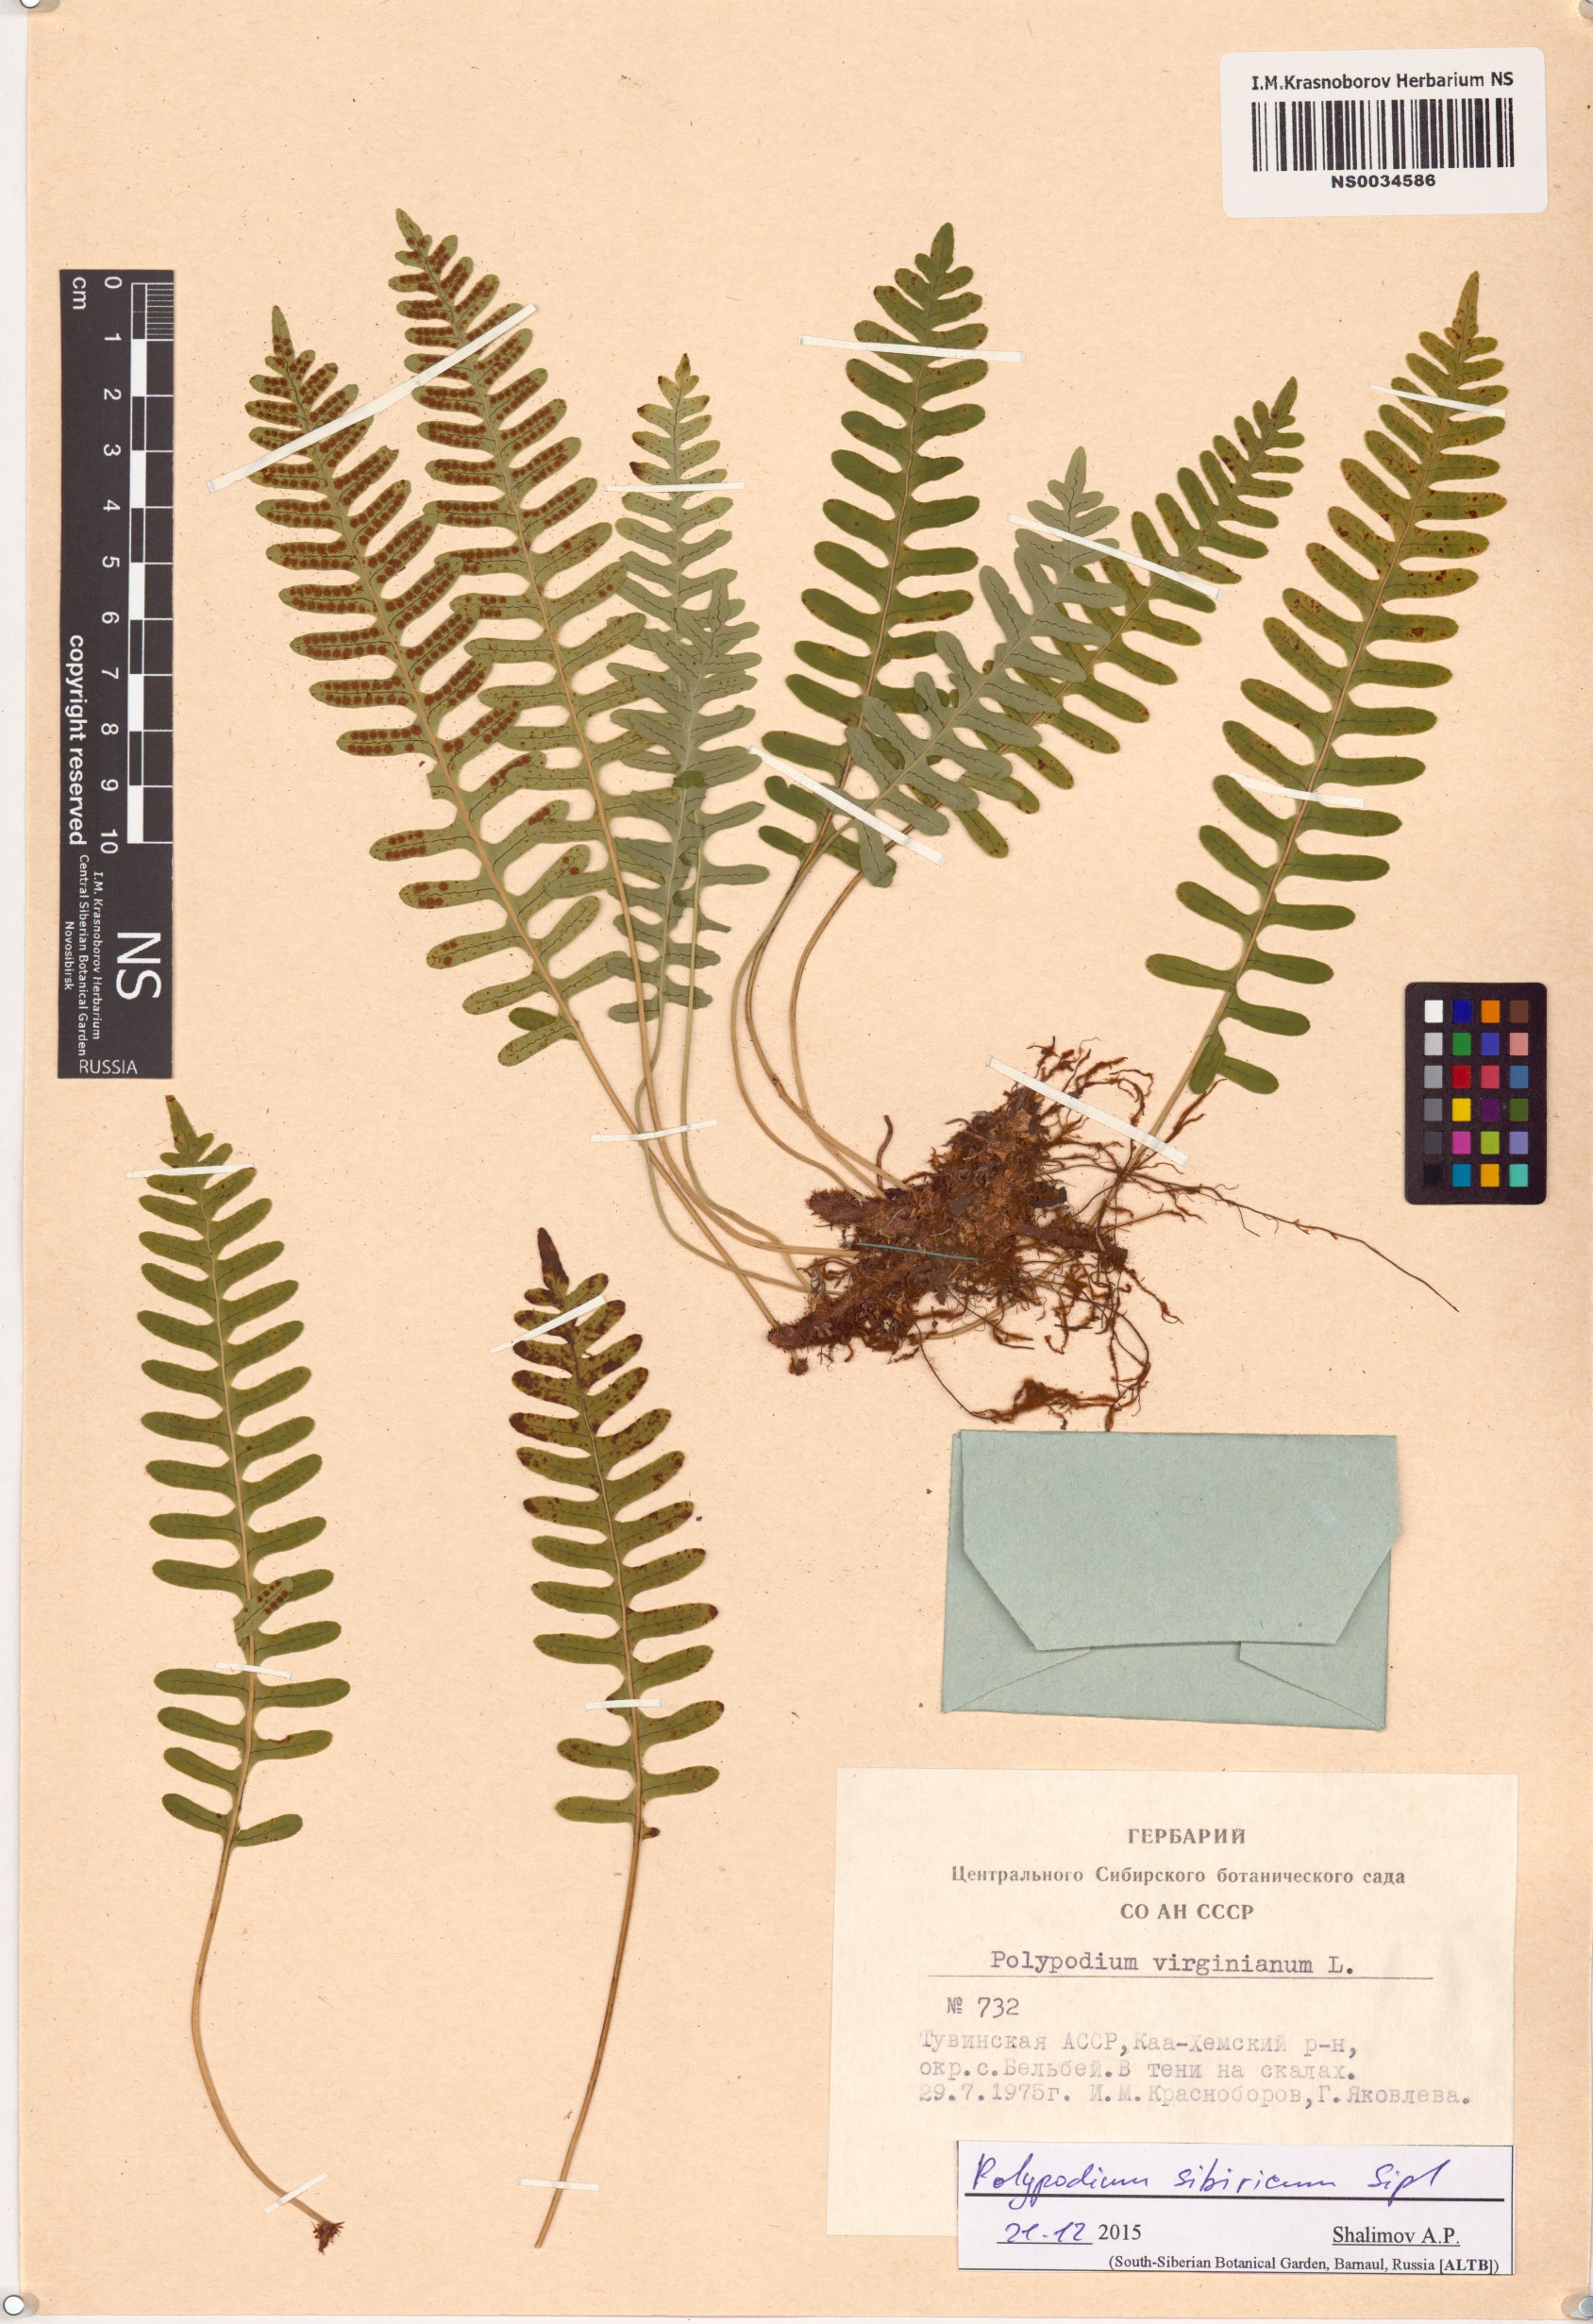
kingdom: Plantae
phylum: Tracheophyta
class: Polypodiopsida
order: Polypodiales
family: Polypodiaceae
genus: Polypodium
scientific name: Polypodium sibiricum
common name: Siberian polypody
